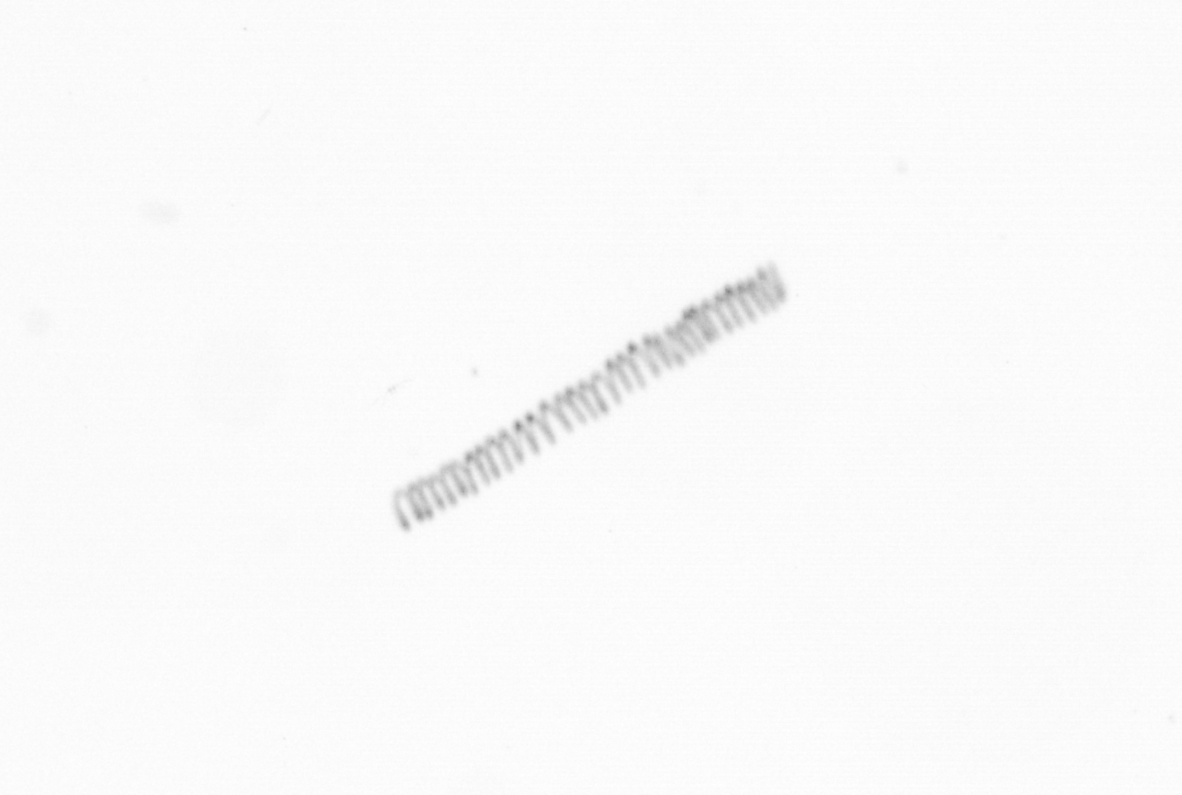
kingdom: Chromista
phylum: Ochrophyta
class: Bacillariophyceae
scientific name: Bacillariophyceae
